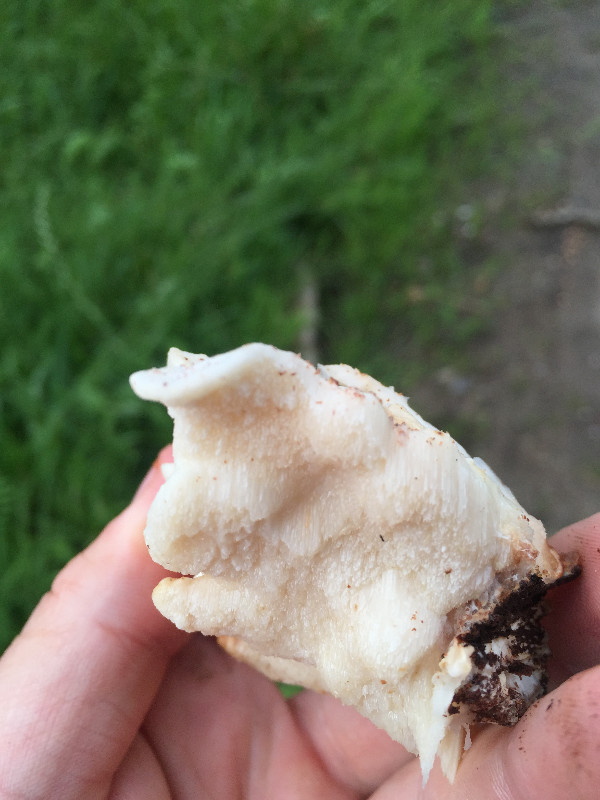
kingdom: Fungi
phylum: Basidiomycota
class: Agaricomycetes
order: Polyporales
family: Polyporaceae
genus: Trametes
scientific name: Trametes versicolor
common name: broget læderporesvamp
